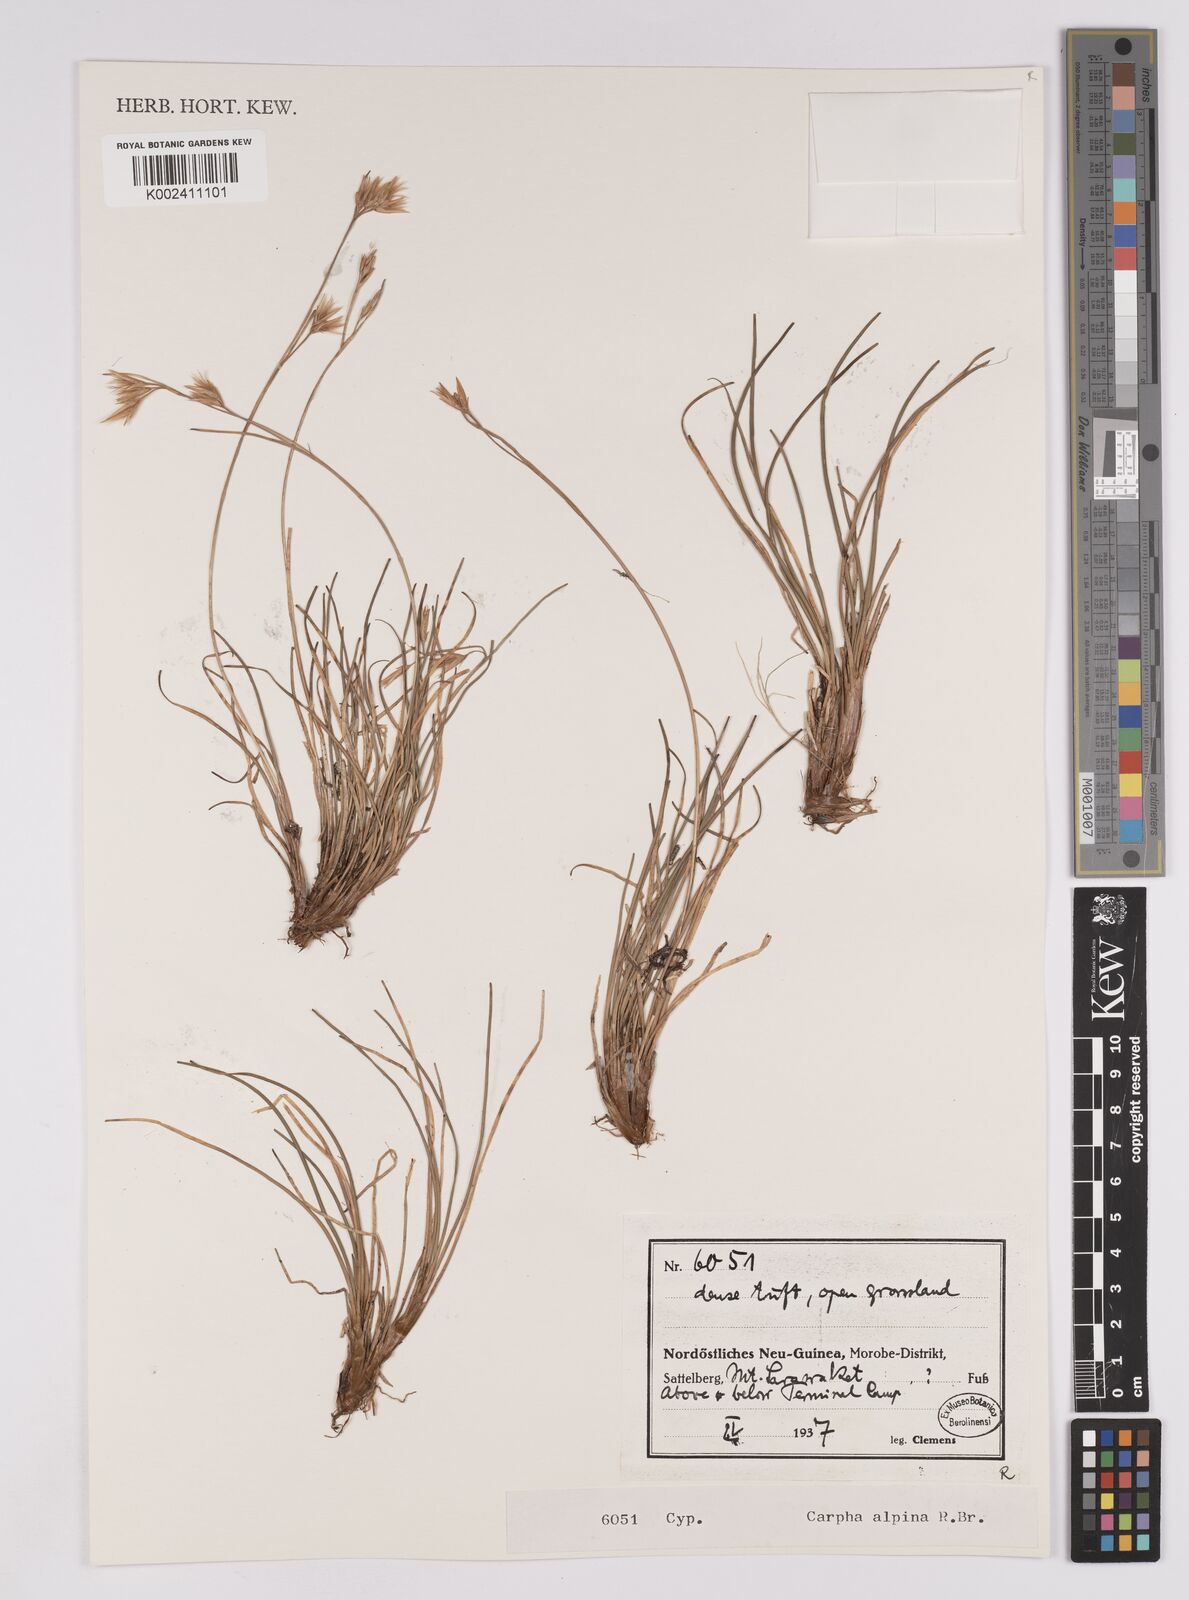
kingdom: Plantae
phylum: Tracheophyta
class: Liliopsida
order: Poales
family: Cyperaceae
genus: Carpha
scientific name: Carpha alpina
